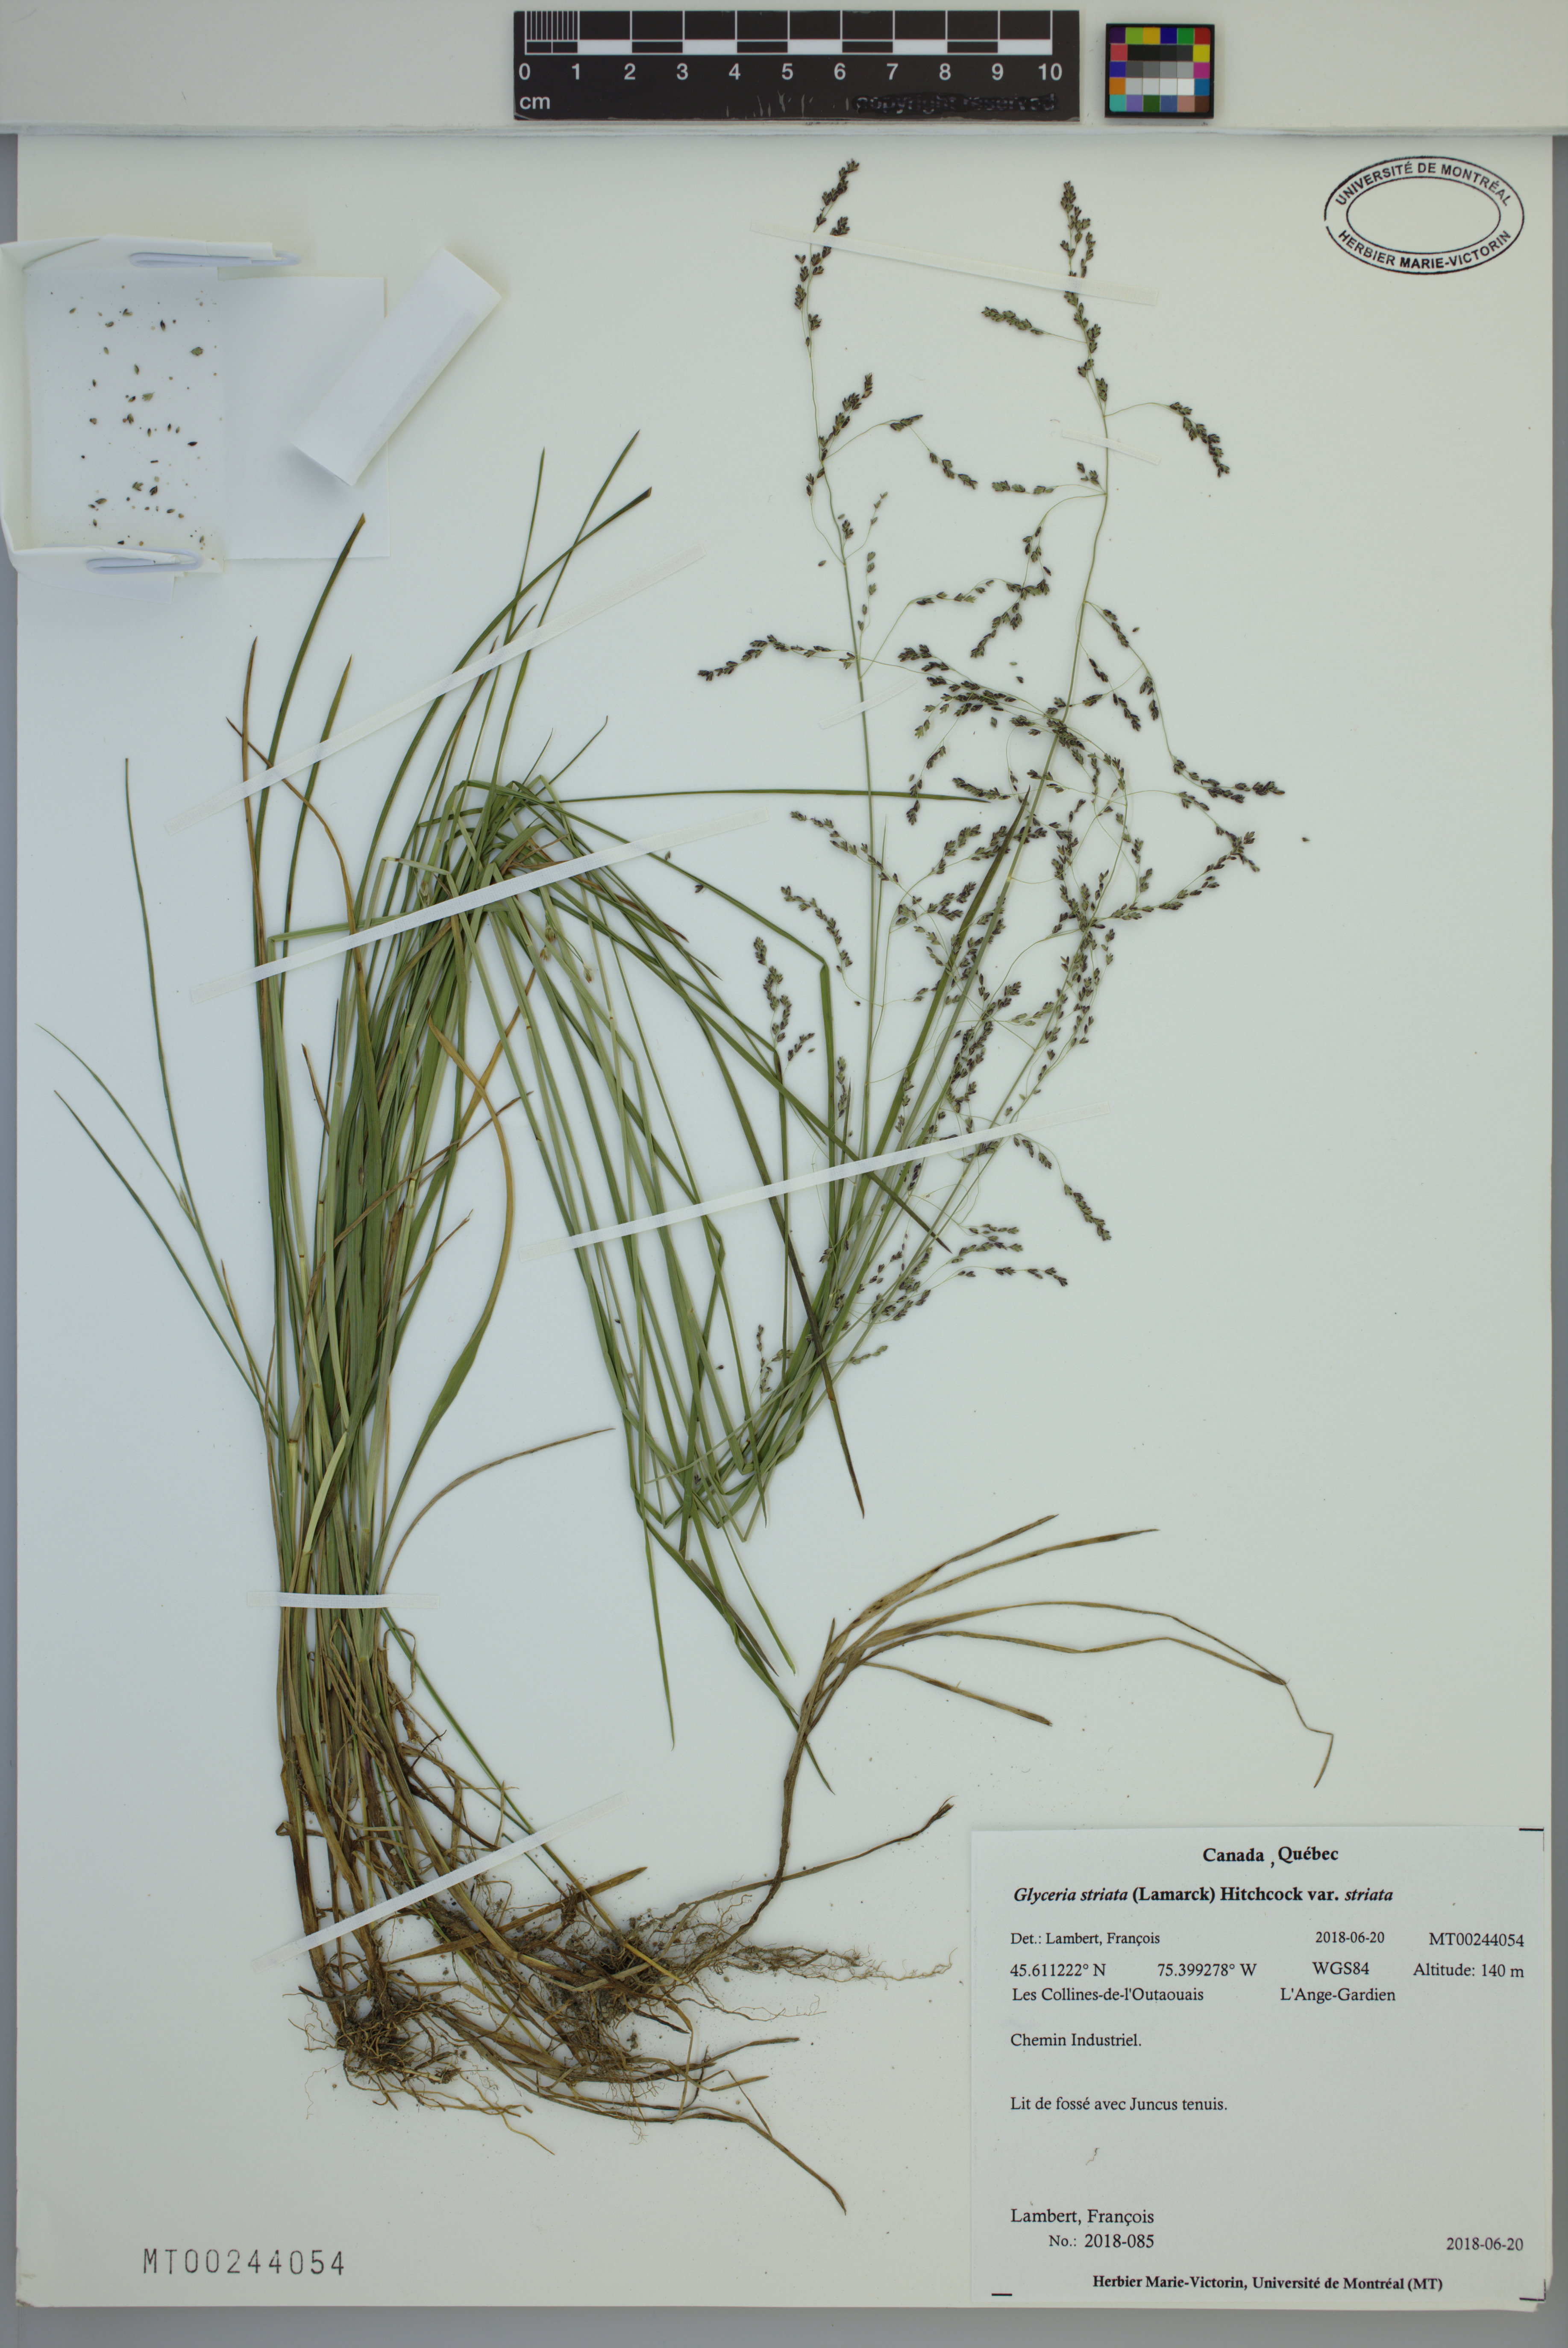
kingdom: Plantae
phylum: Tracheophyta
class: Liliopsida
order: Poales
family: Poaceae
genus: Glyceria
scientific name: Glyceria striata
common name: Fowl manna grass
